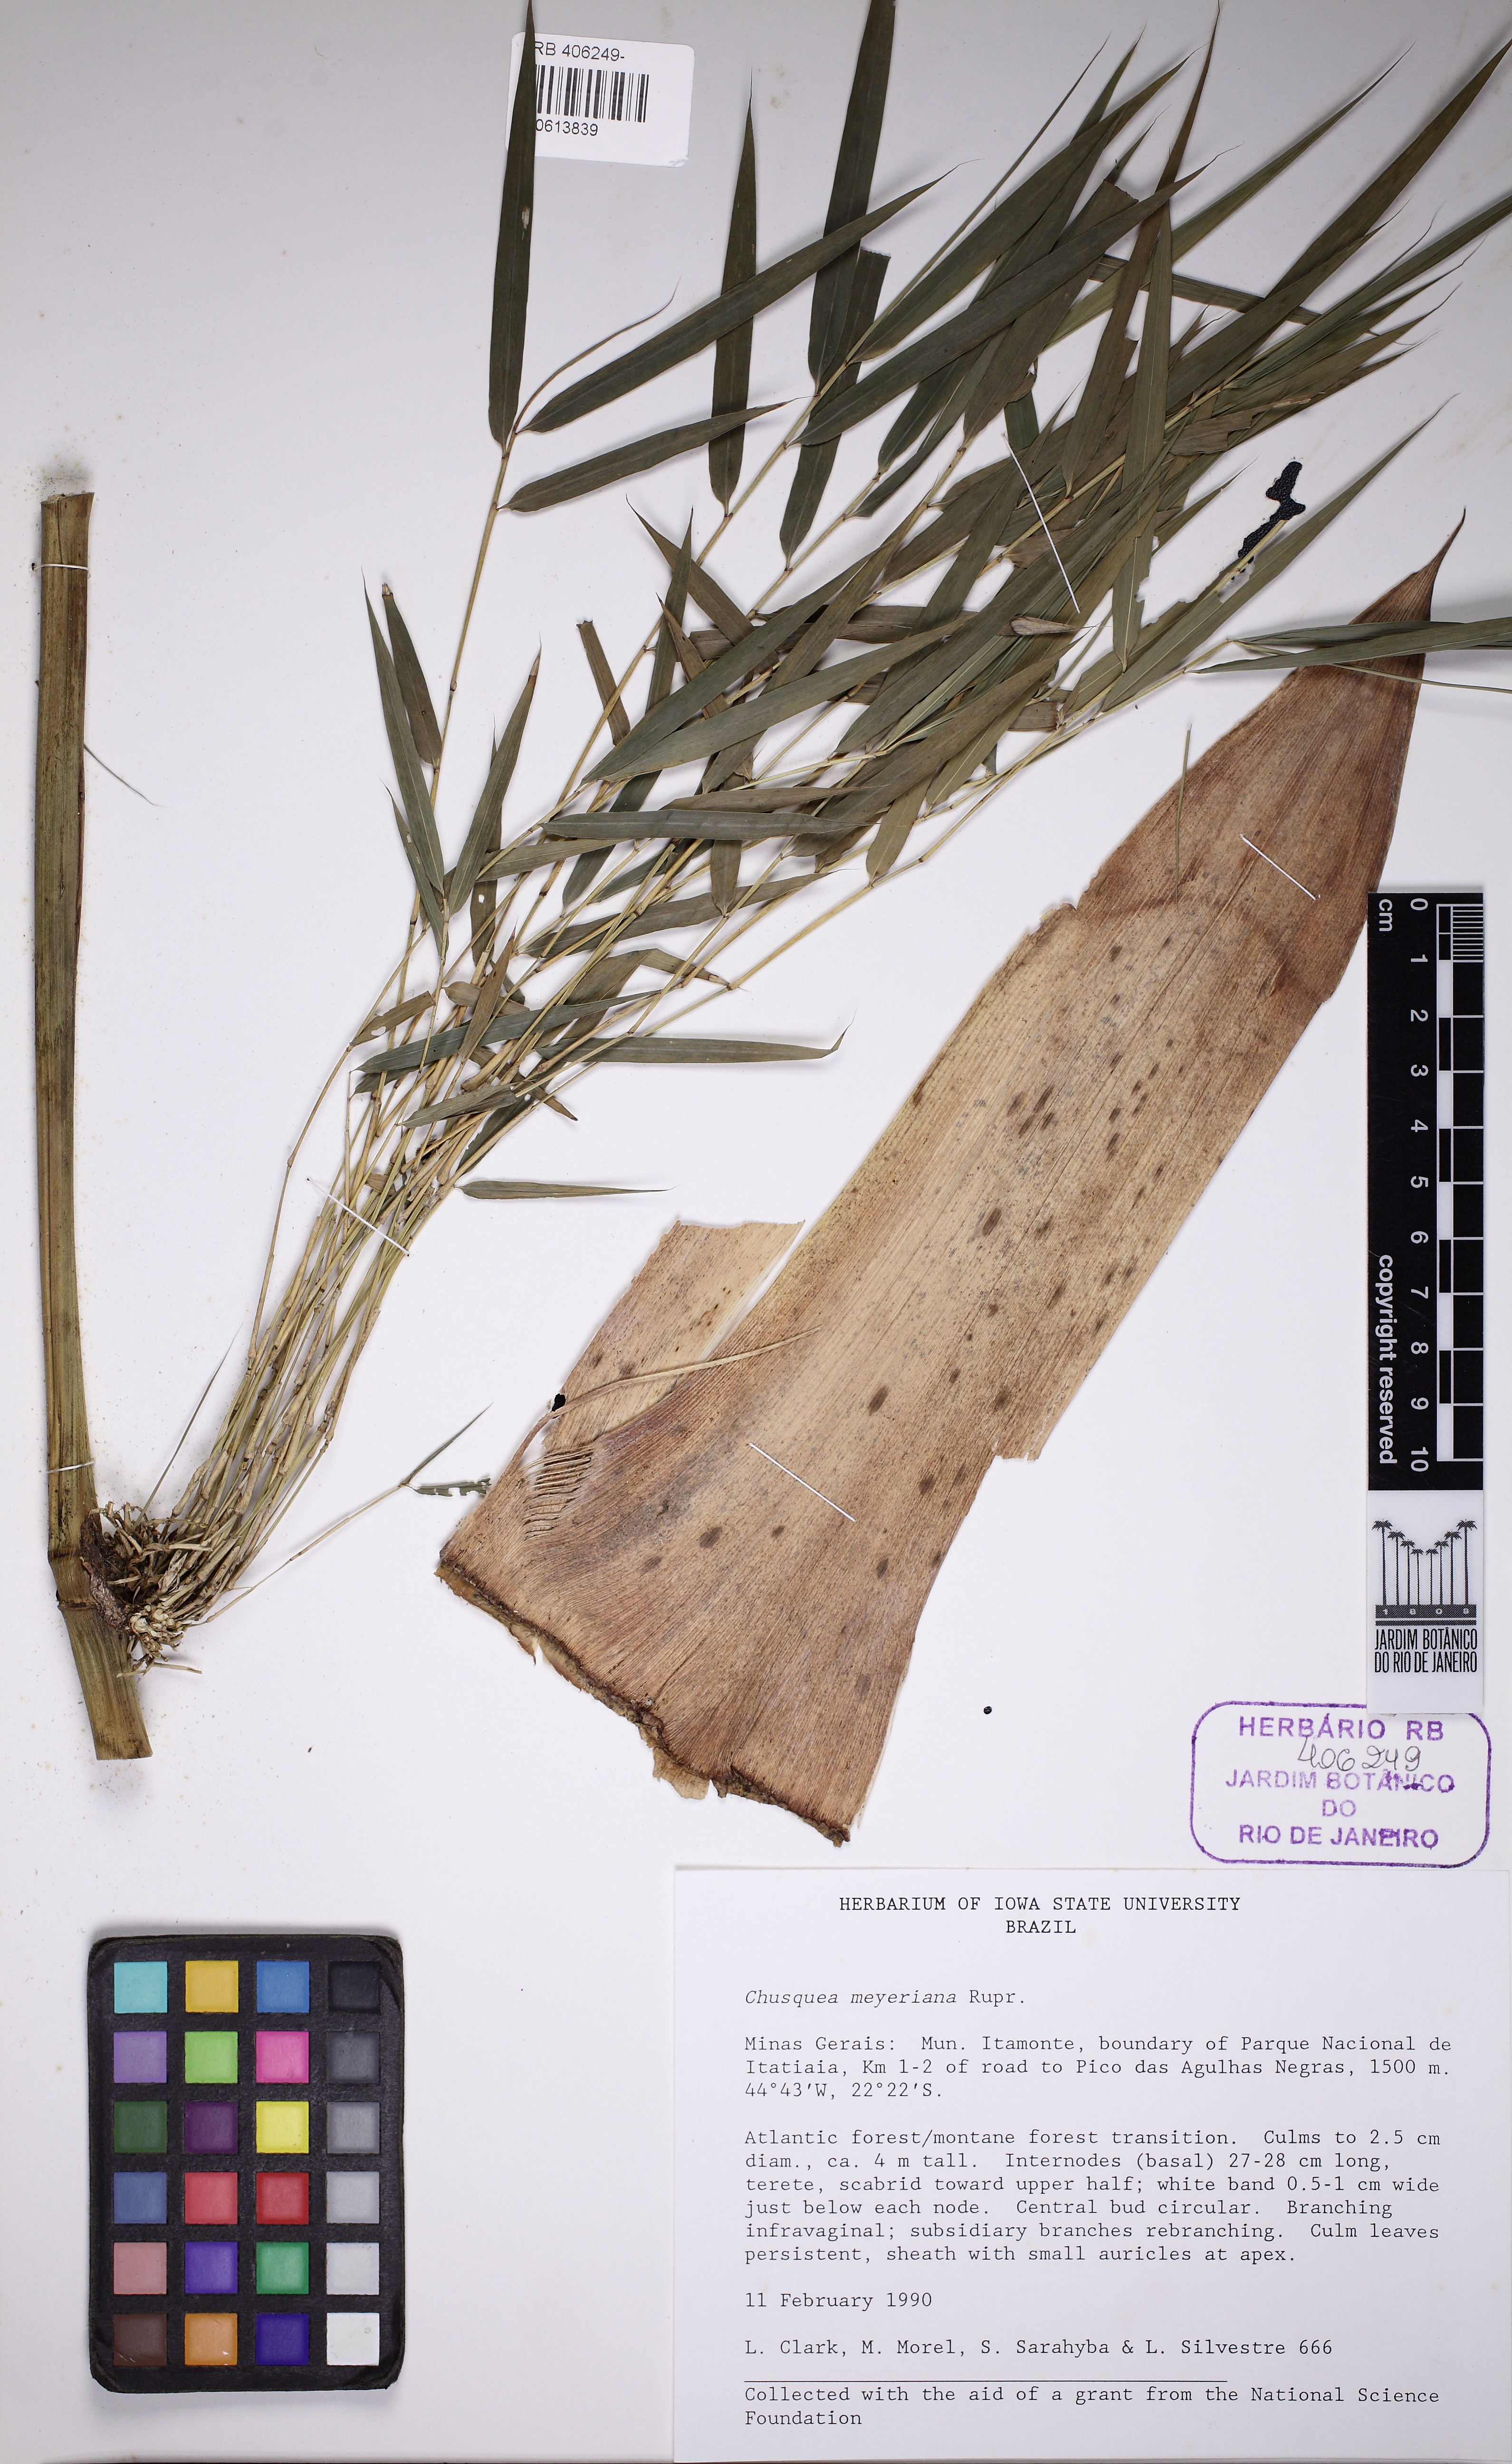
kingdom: Plantae
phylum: Tracheophyta
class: Liliopsida
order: Poales
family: Poaceae
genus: Chusquea
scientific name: Chusquea meyeriana
